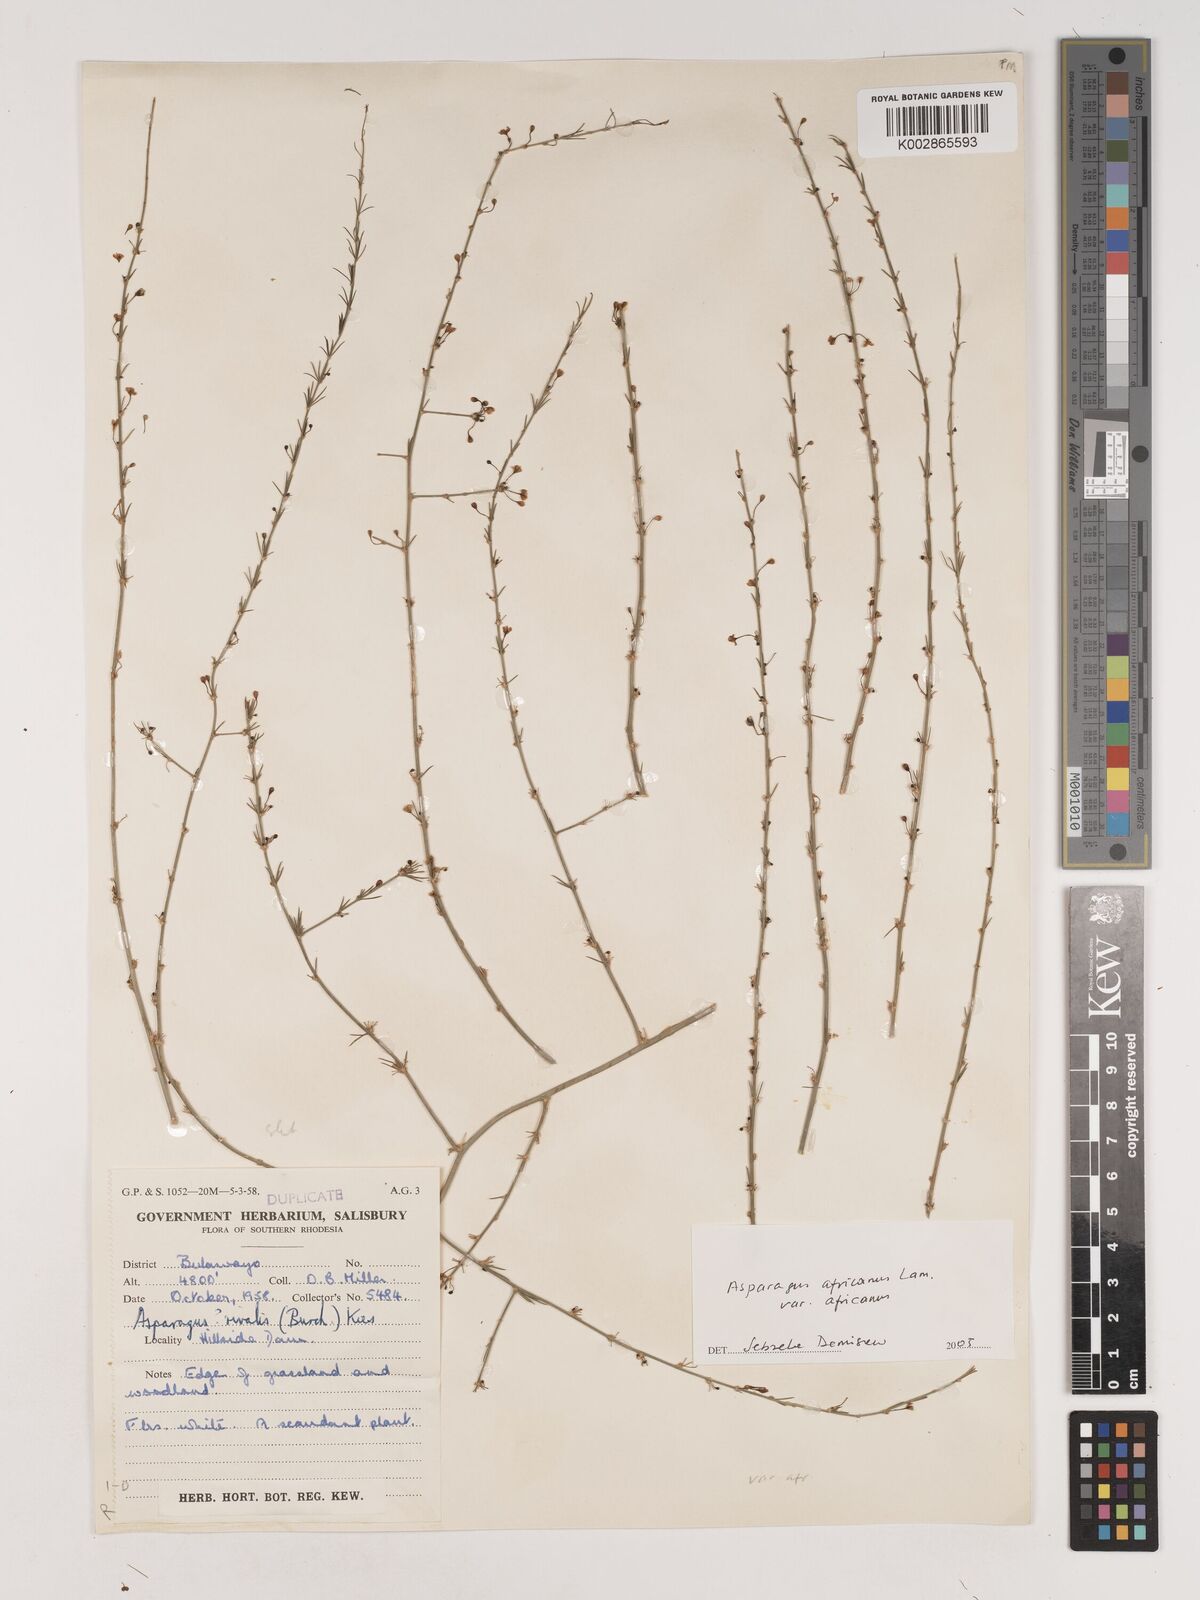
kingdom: Plantae
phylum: Tracheophyta
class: Liliopsida
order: Asparagales
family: Asparagaceae
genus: Asparagus
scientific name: Asparagus africanus
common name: Asparagus-fern
